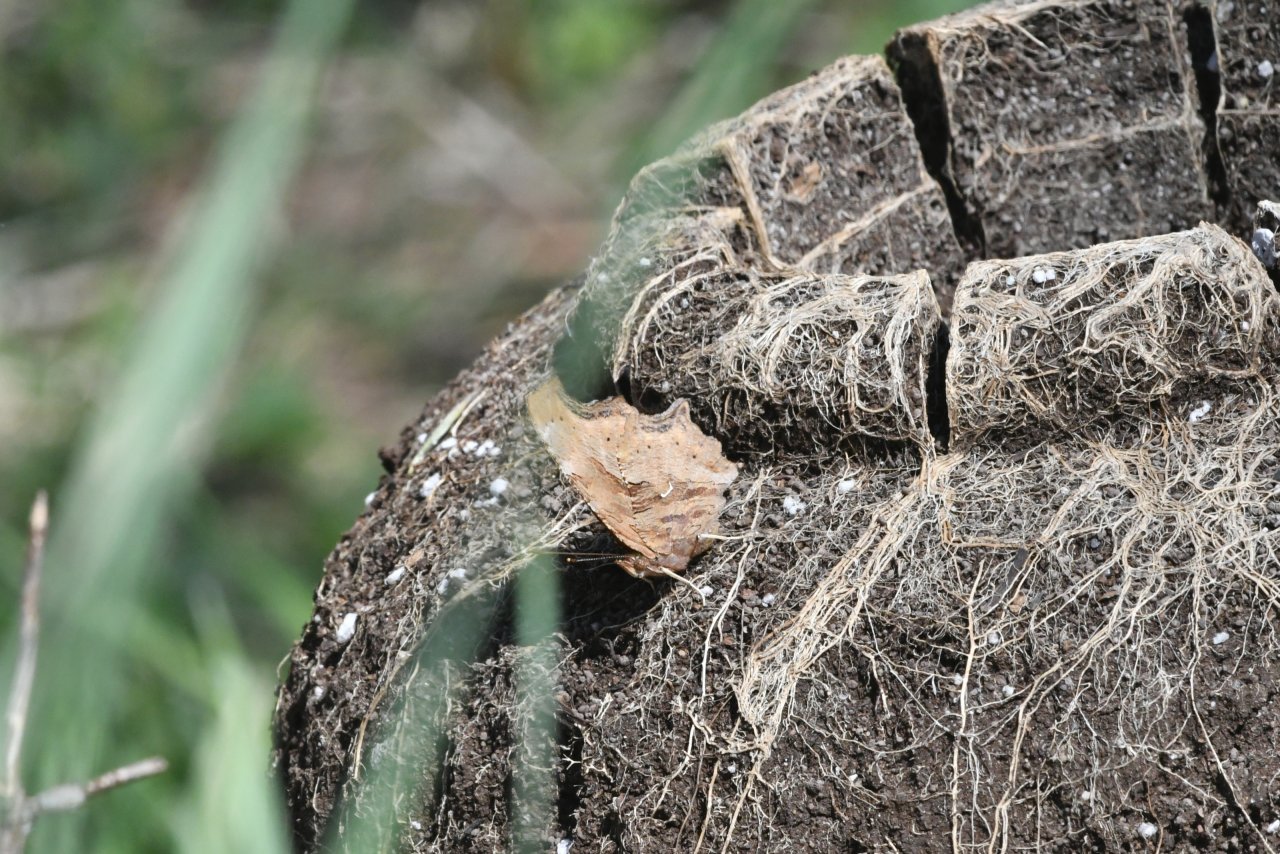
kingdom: Animalia
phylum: Arthropoda
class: Insecta
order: Lepidoptera
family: Nymphalidae
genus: Polygonia
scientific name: Polygonia satyrus
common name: Satyr Comma
